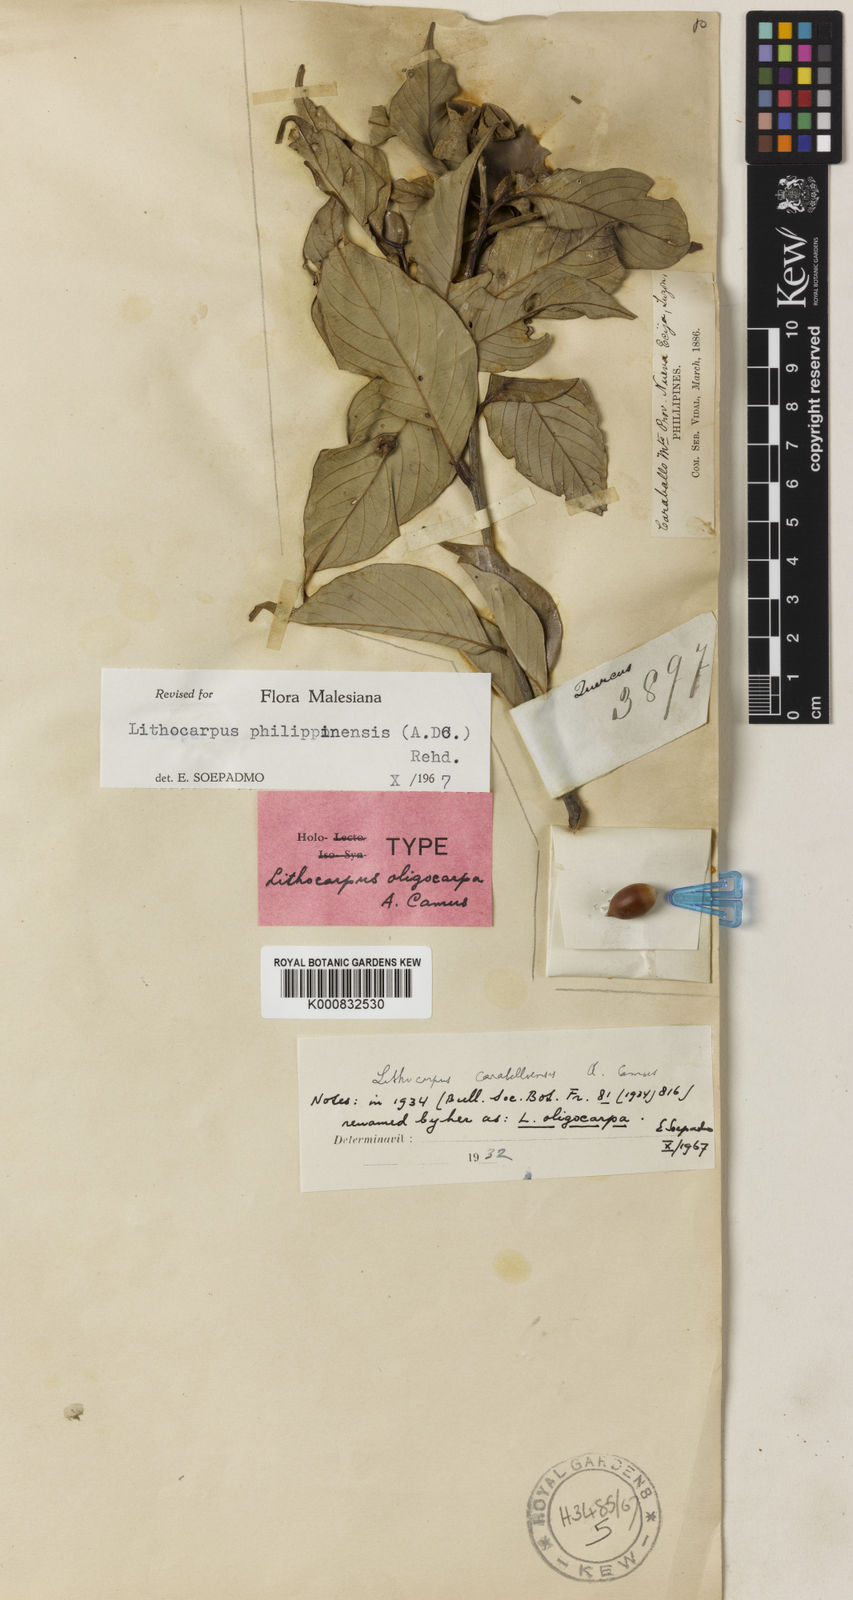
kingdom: Plantae
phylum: Tracheophyta
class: Magnoliopsida
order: Fagales
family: Fagaceae
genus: Lithocarpus
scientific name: Lithocarpus philippinensis
